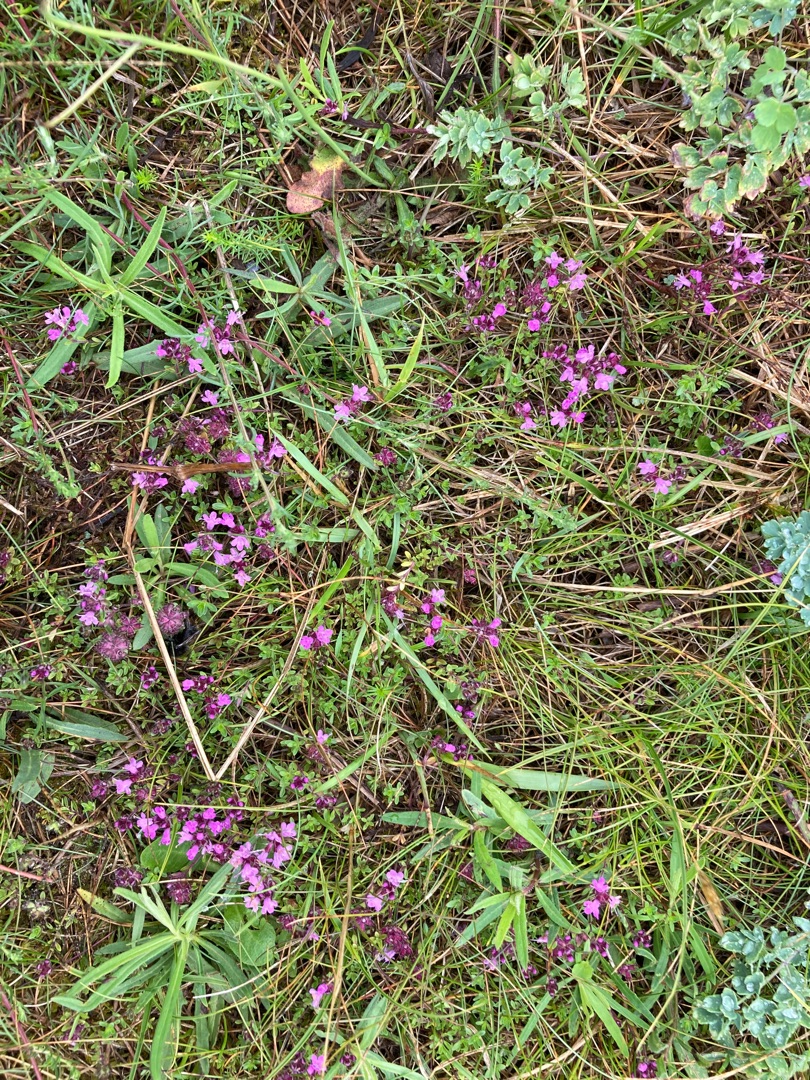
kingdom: Plantae
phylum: Tracheophyta
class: Magnoliopsida
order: Lamiales
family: Lamiaceae
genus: Thymus
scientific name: Thymus serpyllum
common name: Smalbladet timian
